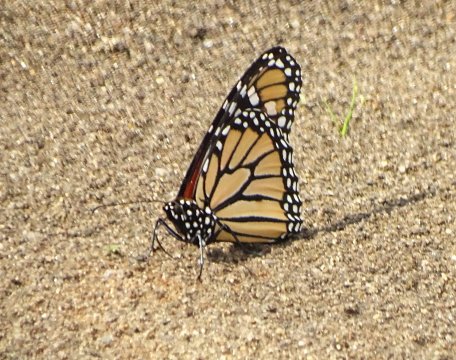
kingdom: Animalia
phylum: Arthropoda
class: Insecta
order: Lepidoptera
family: Nymphalidae
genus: Danaus
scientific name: Danaus plexippus
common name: Monarch
